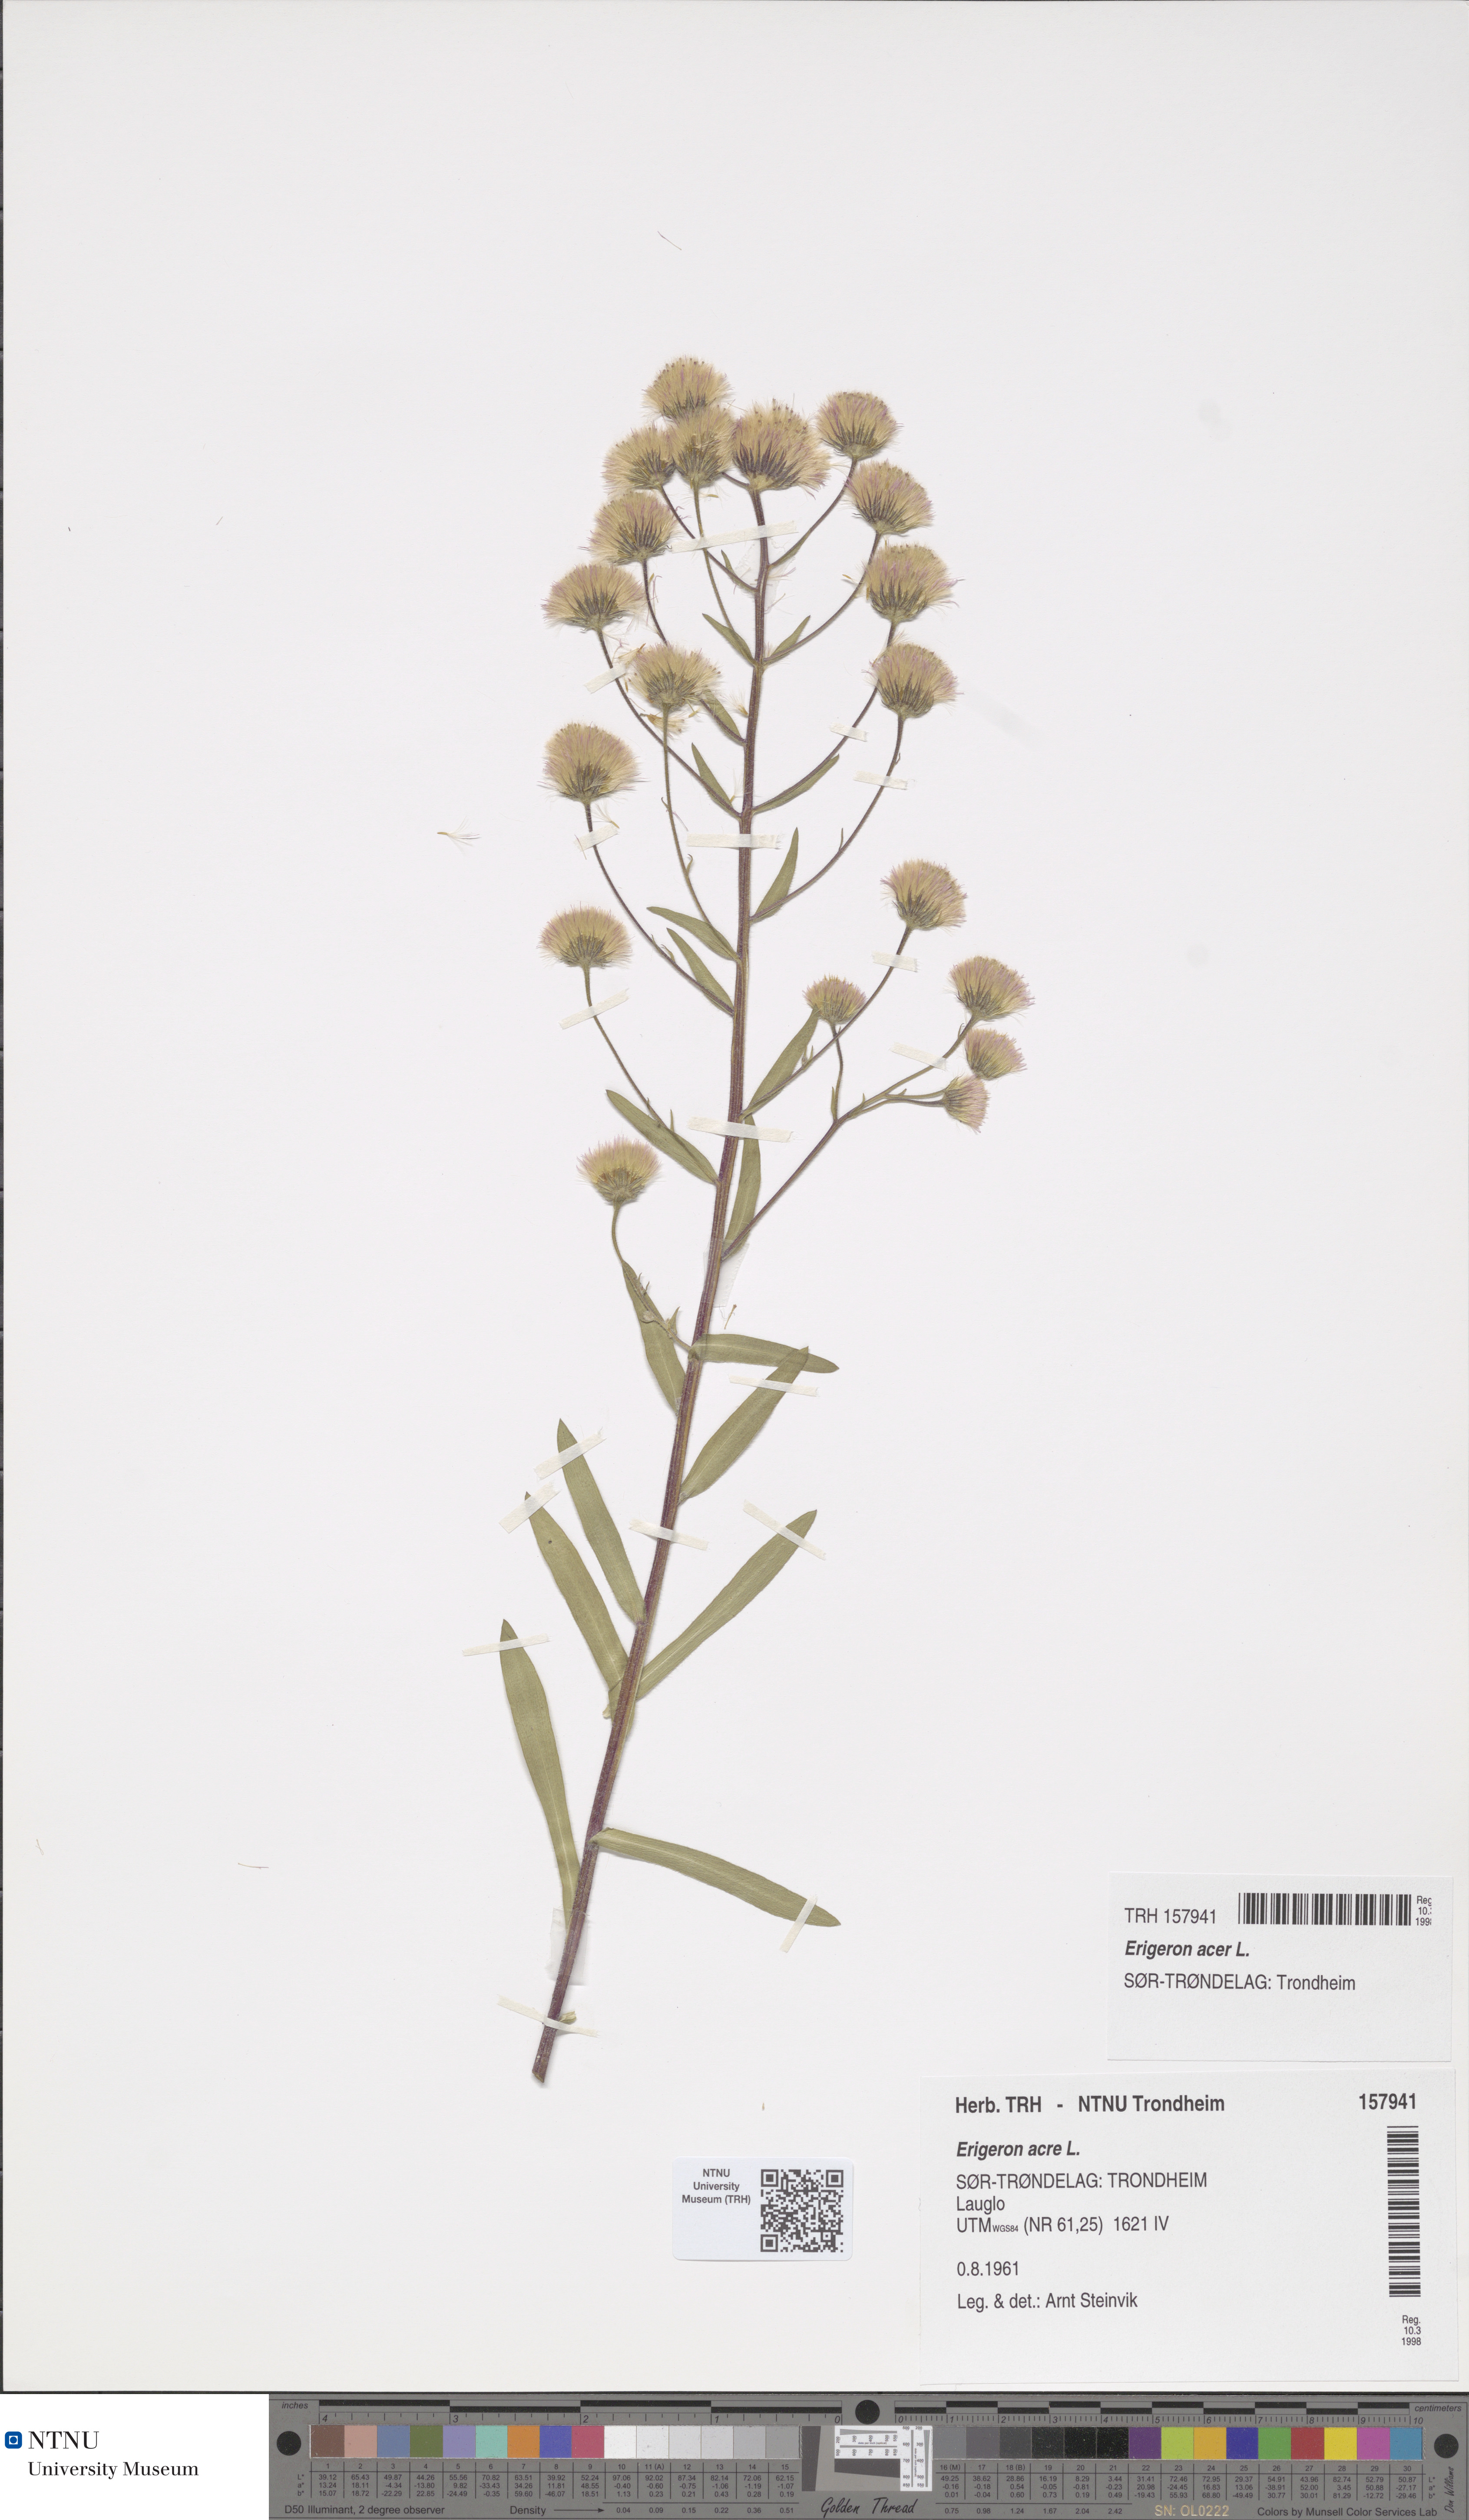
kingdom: Plantae
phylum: Tracheophyta
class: Magnoliopsida
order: Asterales
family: Asteraceae
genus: Erigeron
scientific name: Erigeron acris
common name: Blue fleabane
